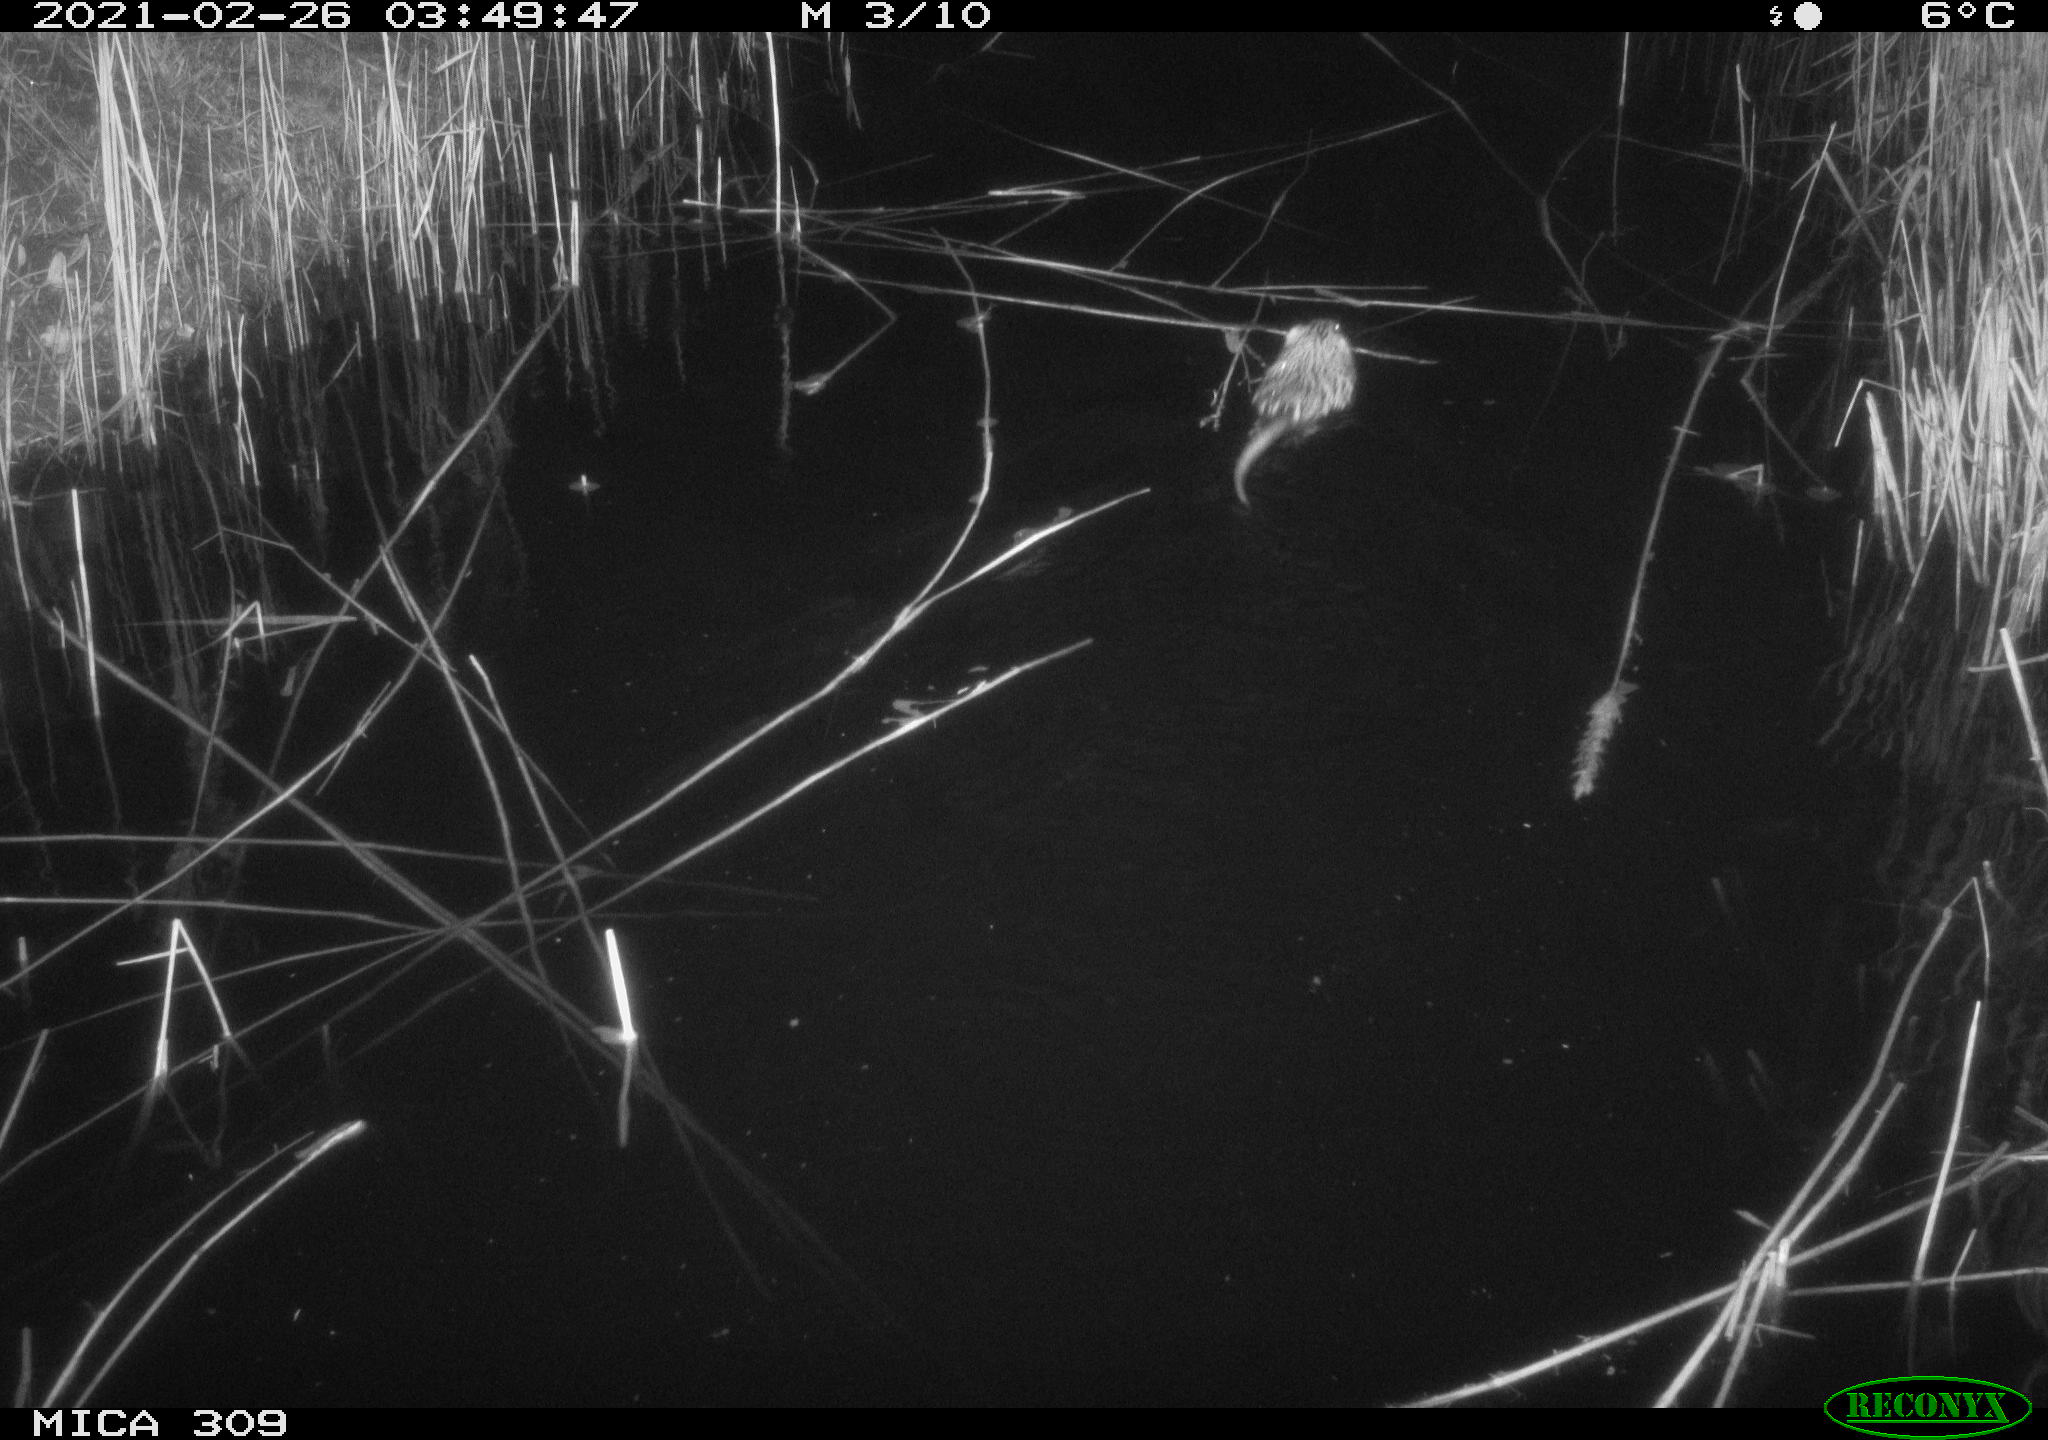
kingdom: Animalia
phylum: Chordata
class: Mammalia
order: Rodentia
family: Cricetidae
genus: Ondatra
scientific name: Ondatra zibethicus
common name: Muskrat
